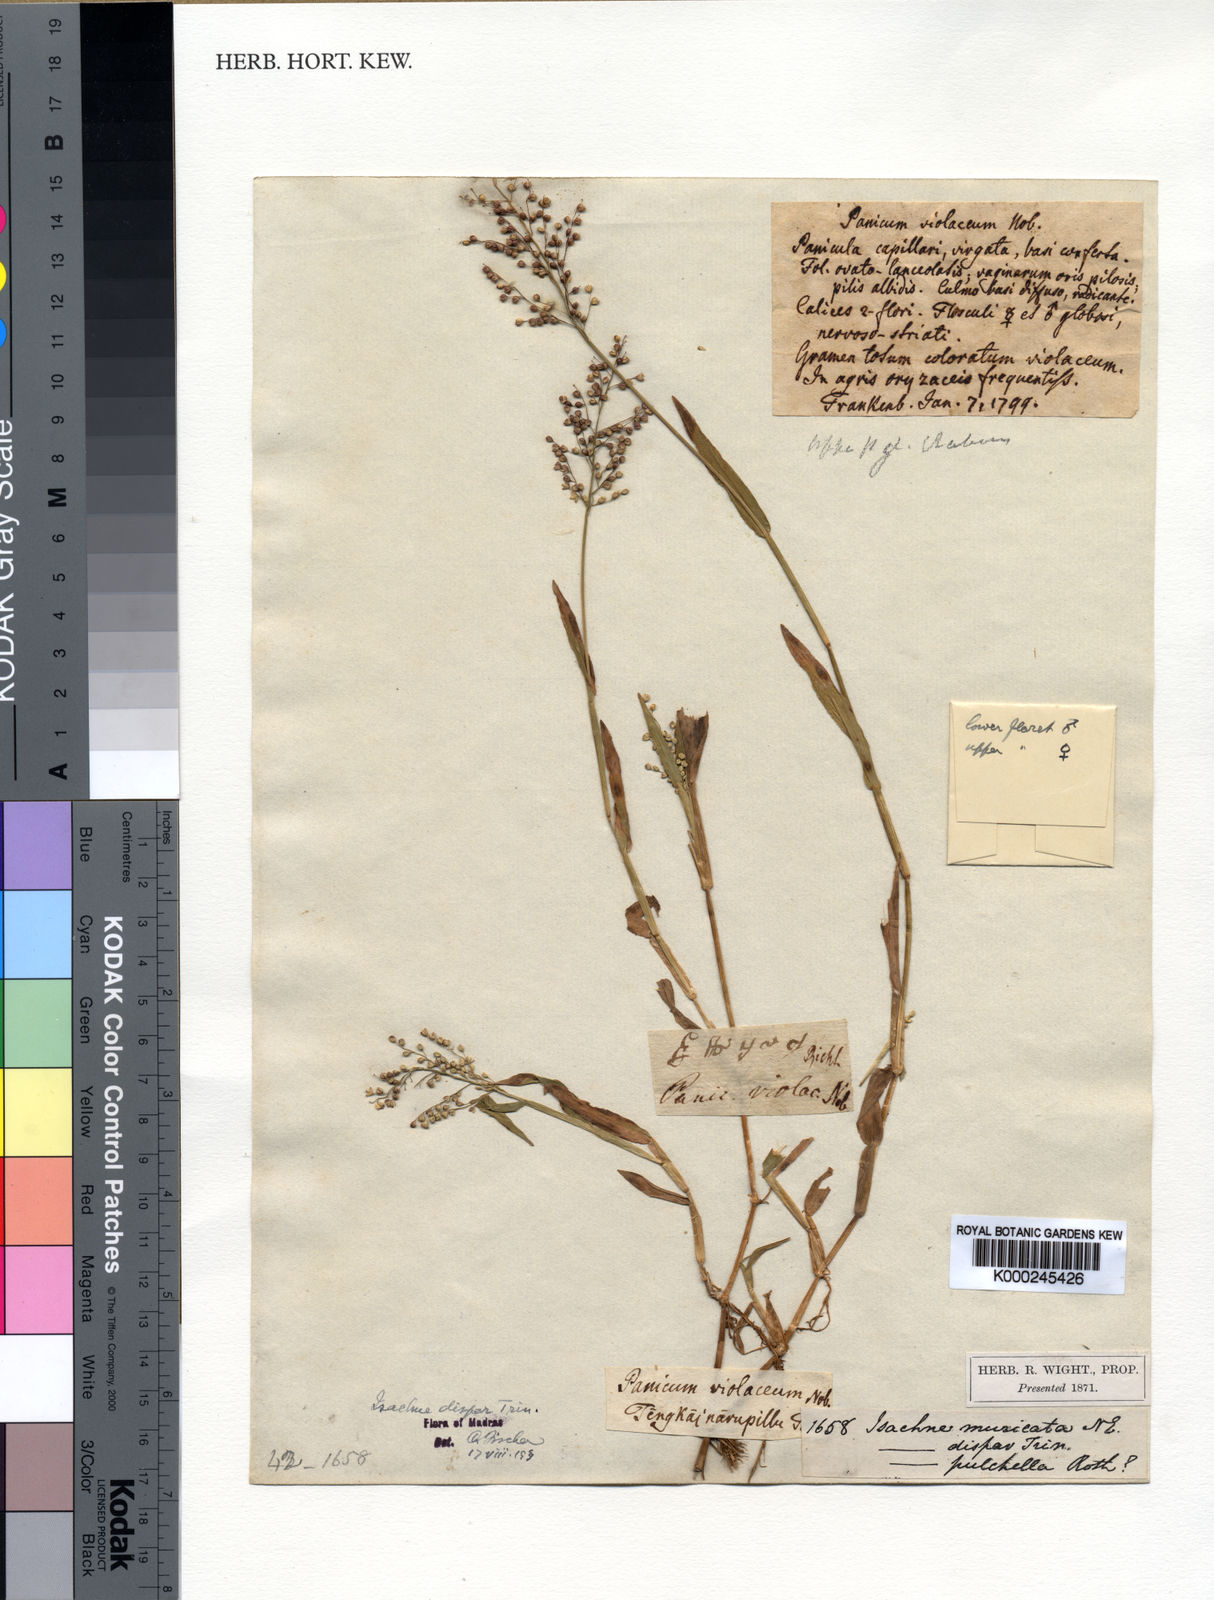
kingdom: Plantae
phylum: Tracheophyta
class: Liliopsida
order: Poales
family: Poaceae
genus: Isachne
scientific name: Isachne globosa
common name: Swamp millet
